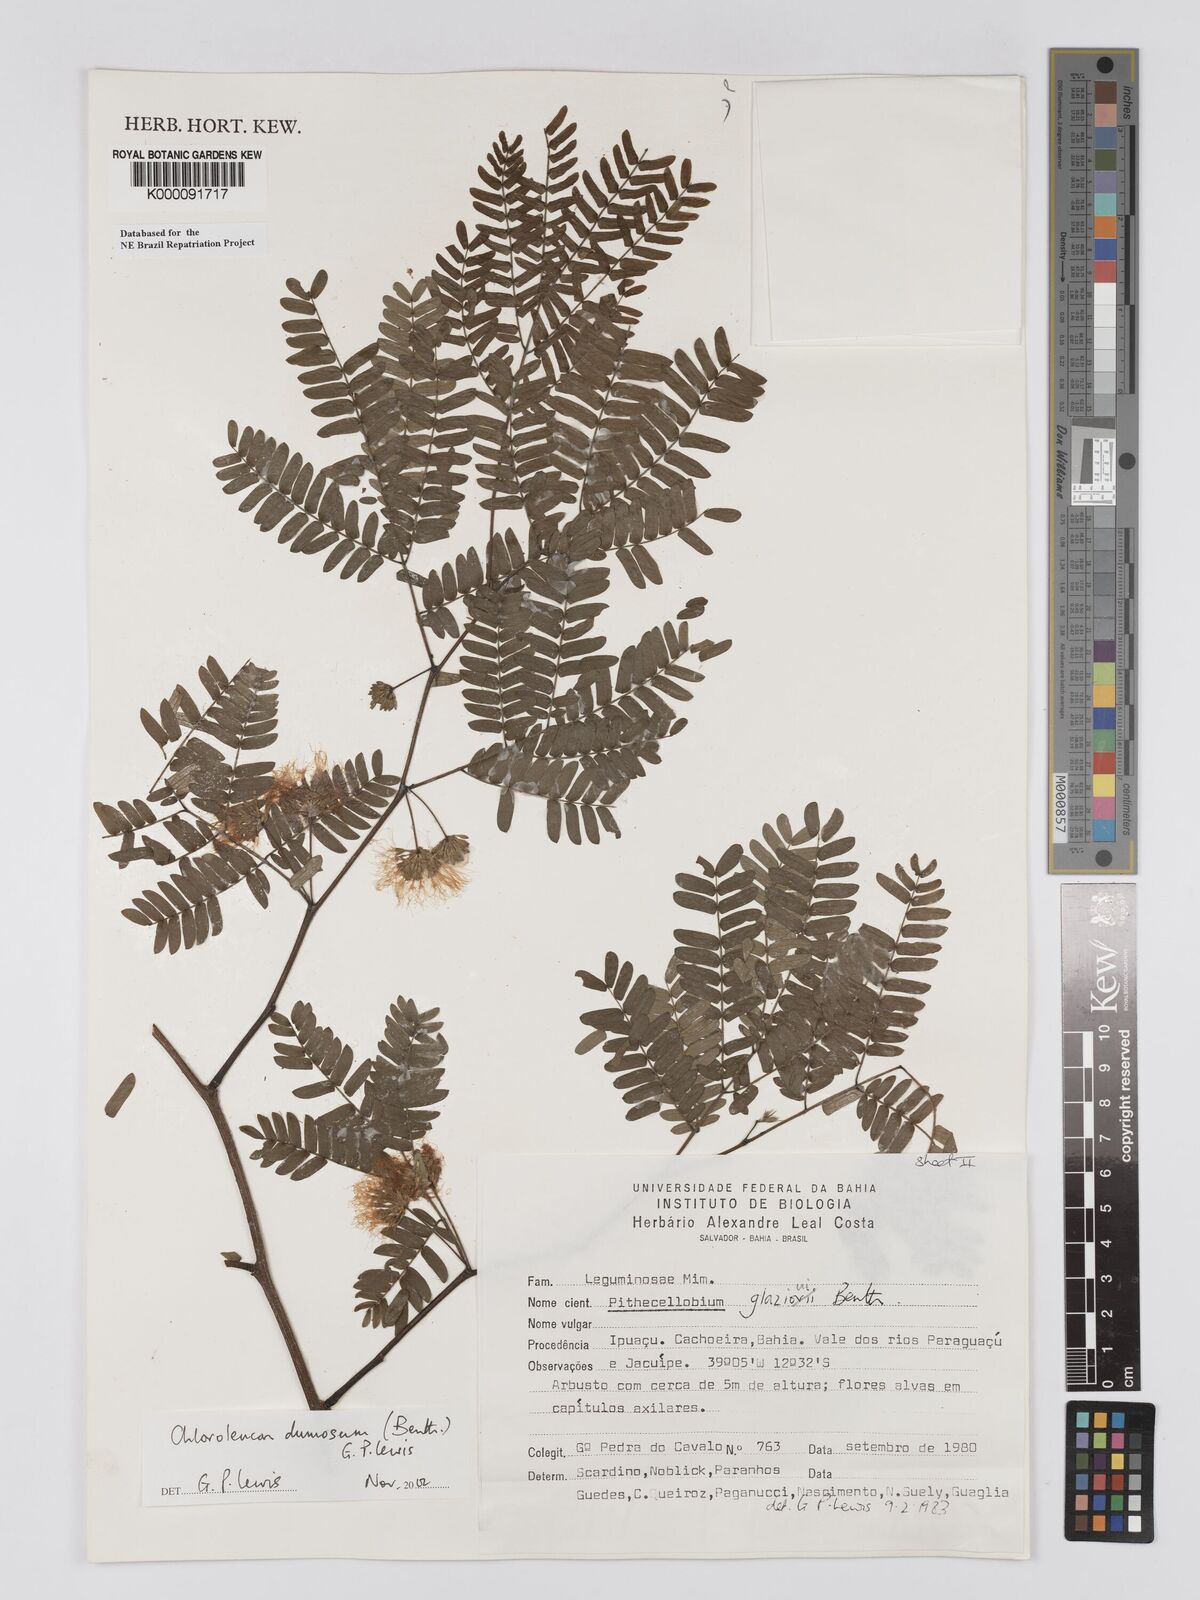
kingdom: Plantae
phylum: Tracheophyta
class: Magnoliopsida
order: Fabales
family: Fabaceae
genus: Chloroleucon
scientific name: Chloroleucon dumosum
